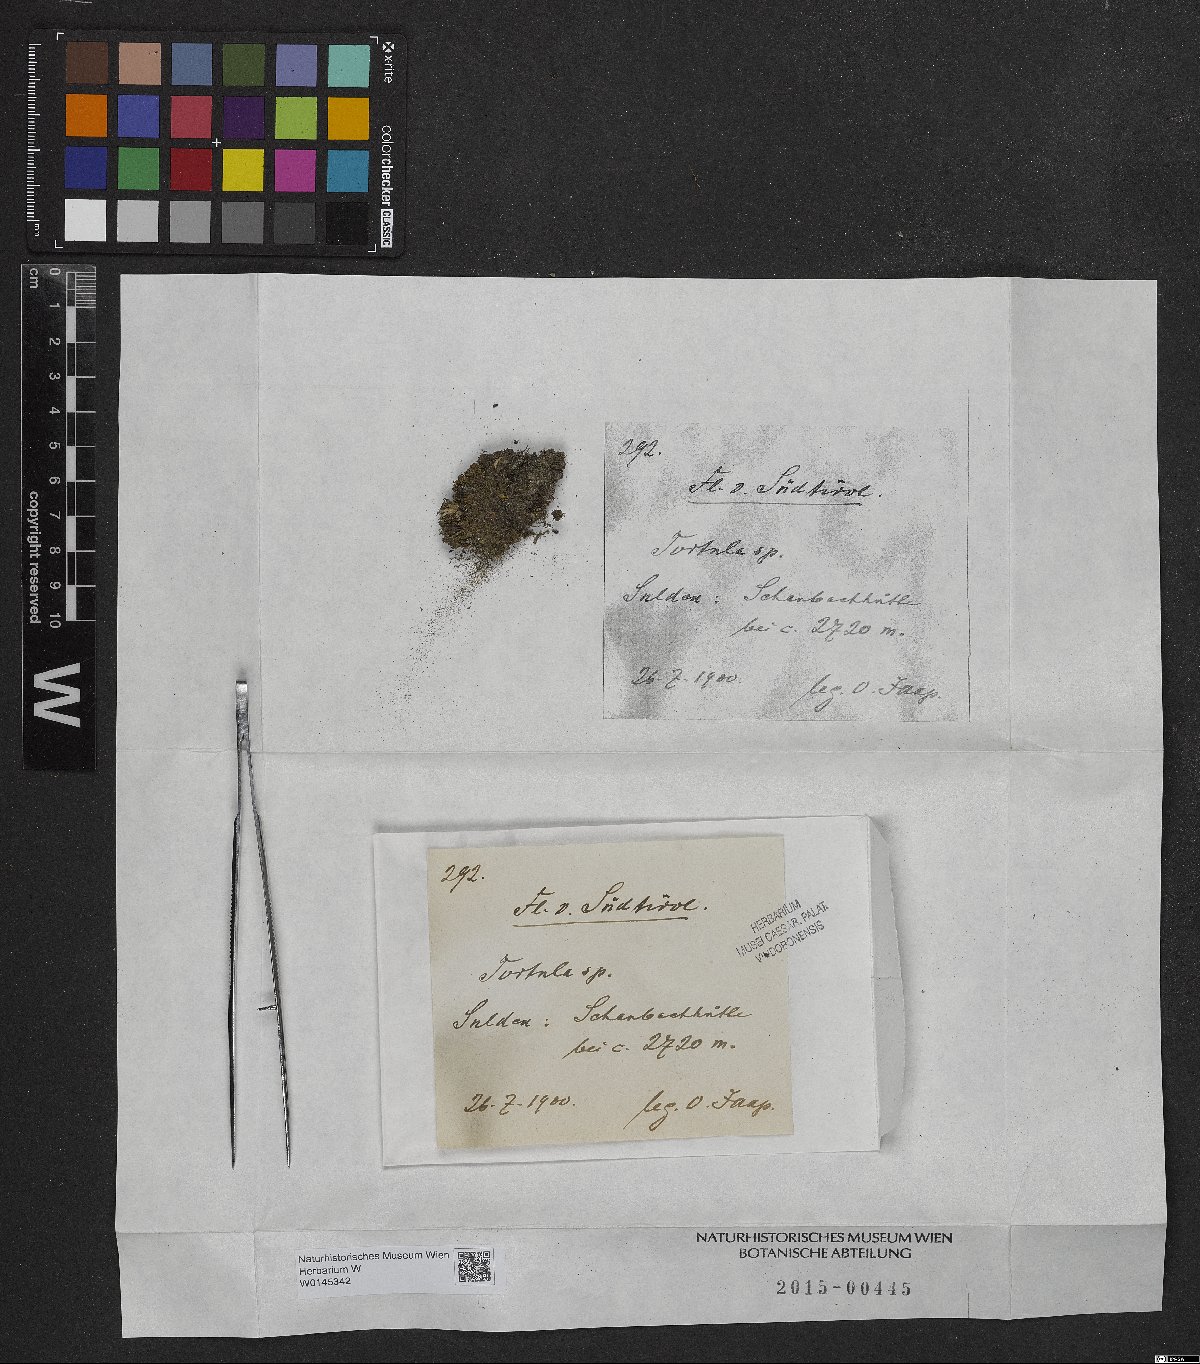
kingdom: Plantae
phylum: Bryophyta
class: Bryopsida
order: Pottiales
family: Pottiaceae
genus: Tortula
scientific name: Tortula
